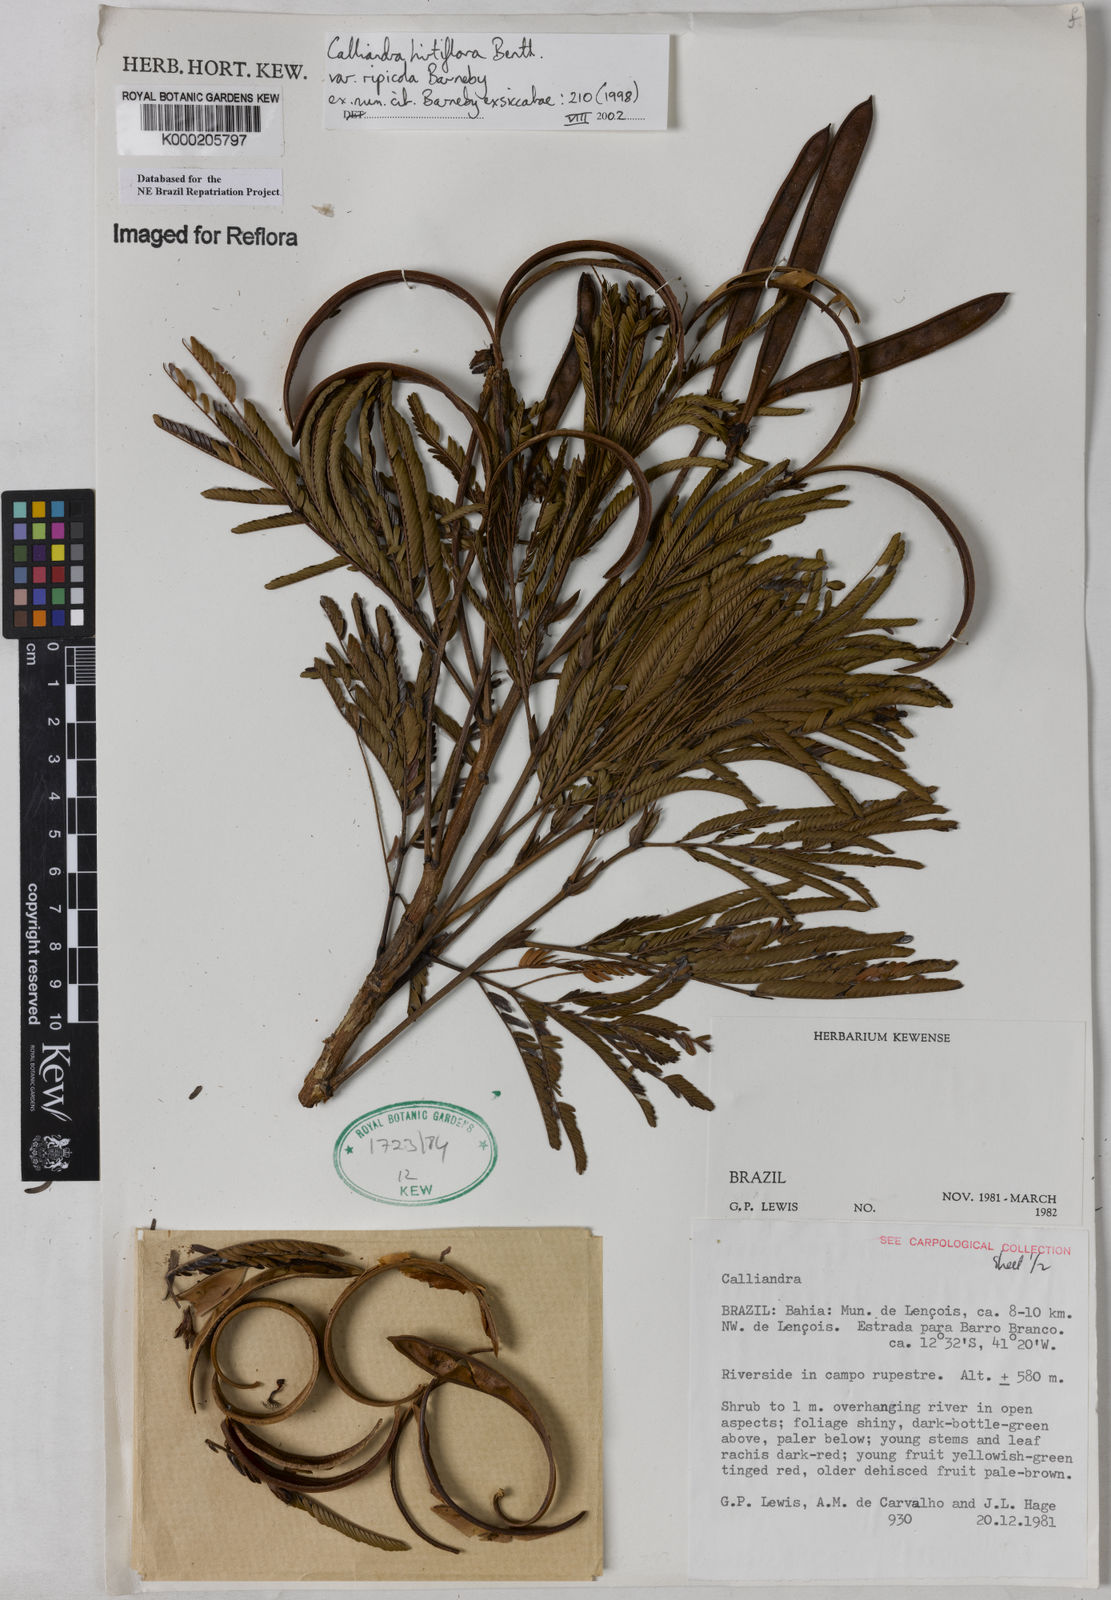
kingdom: Plantae
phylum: Tracheophyta
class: Magnoliopsida
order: Fabales
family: Fabaceae
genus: Calliandra
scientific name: Calliandra hirtiflora
